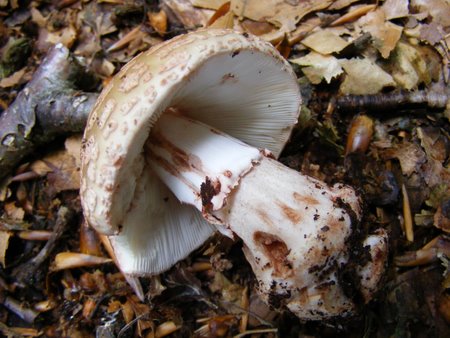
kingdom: Fungi
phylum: Basidiomycota
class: Agaricomycetes
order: Agaricales
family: Amanitaceae
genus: Amanita
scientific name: Amanita rubescens
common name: rødmende fluesvamp
